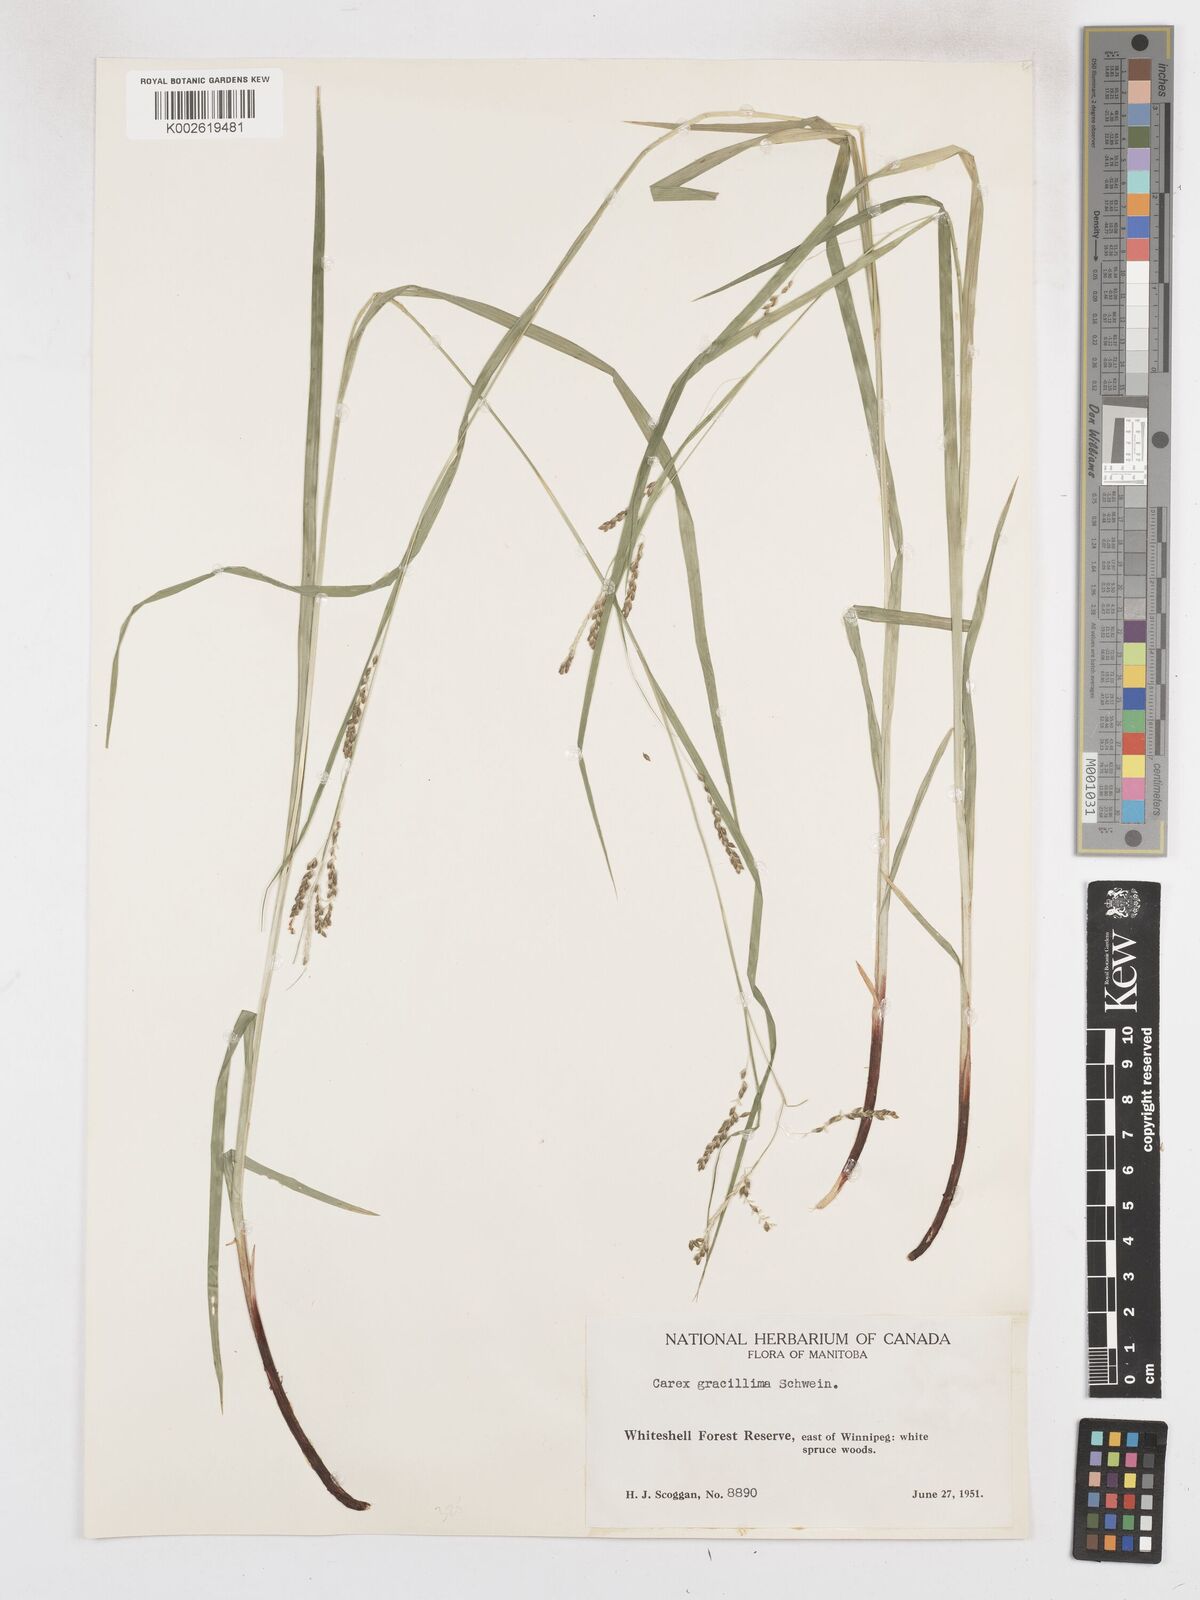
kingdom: Plantae
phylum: Tracheophyta
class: Liliopsida
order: Poales
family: Cyperaceae
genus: Carex
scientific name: Carex gracillima
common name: Graceful sedge
